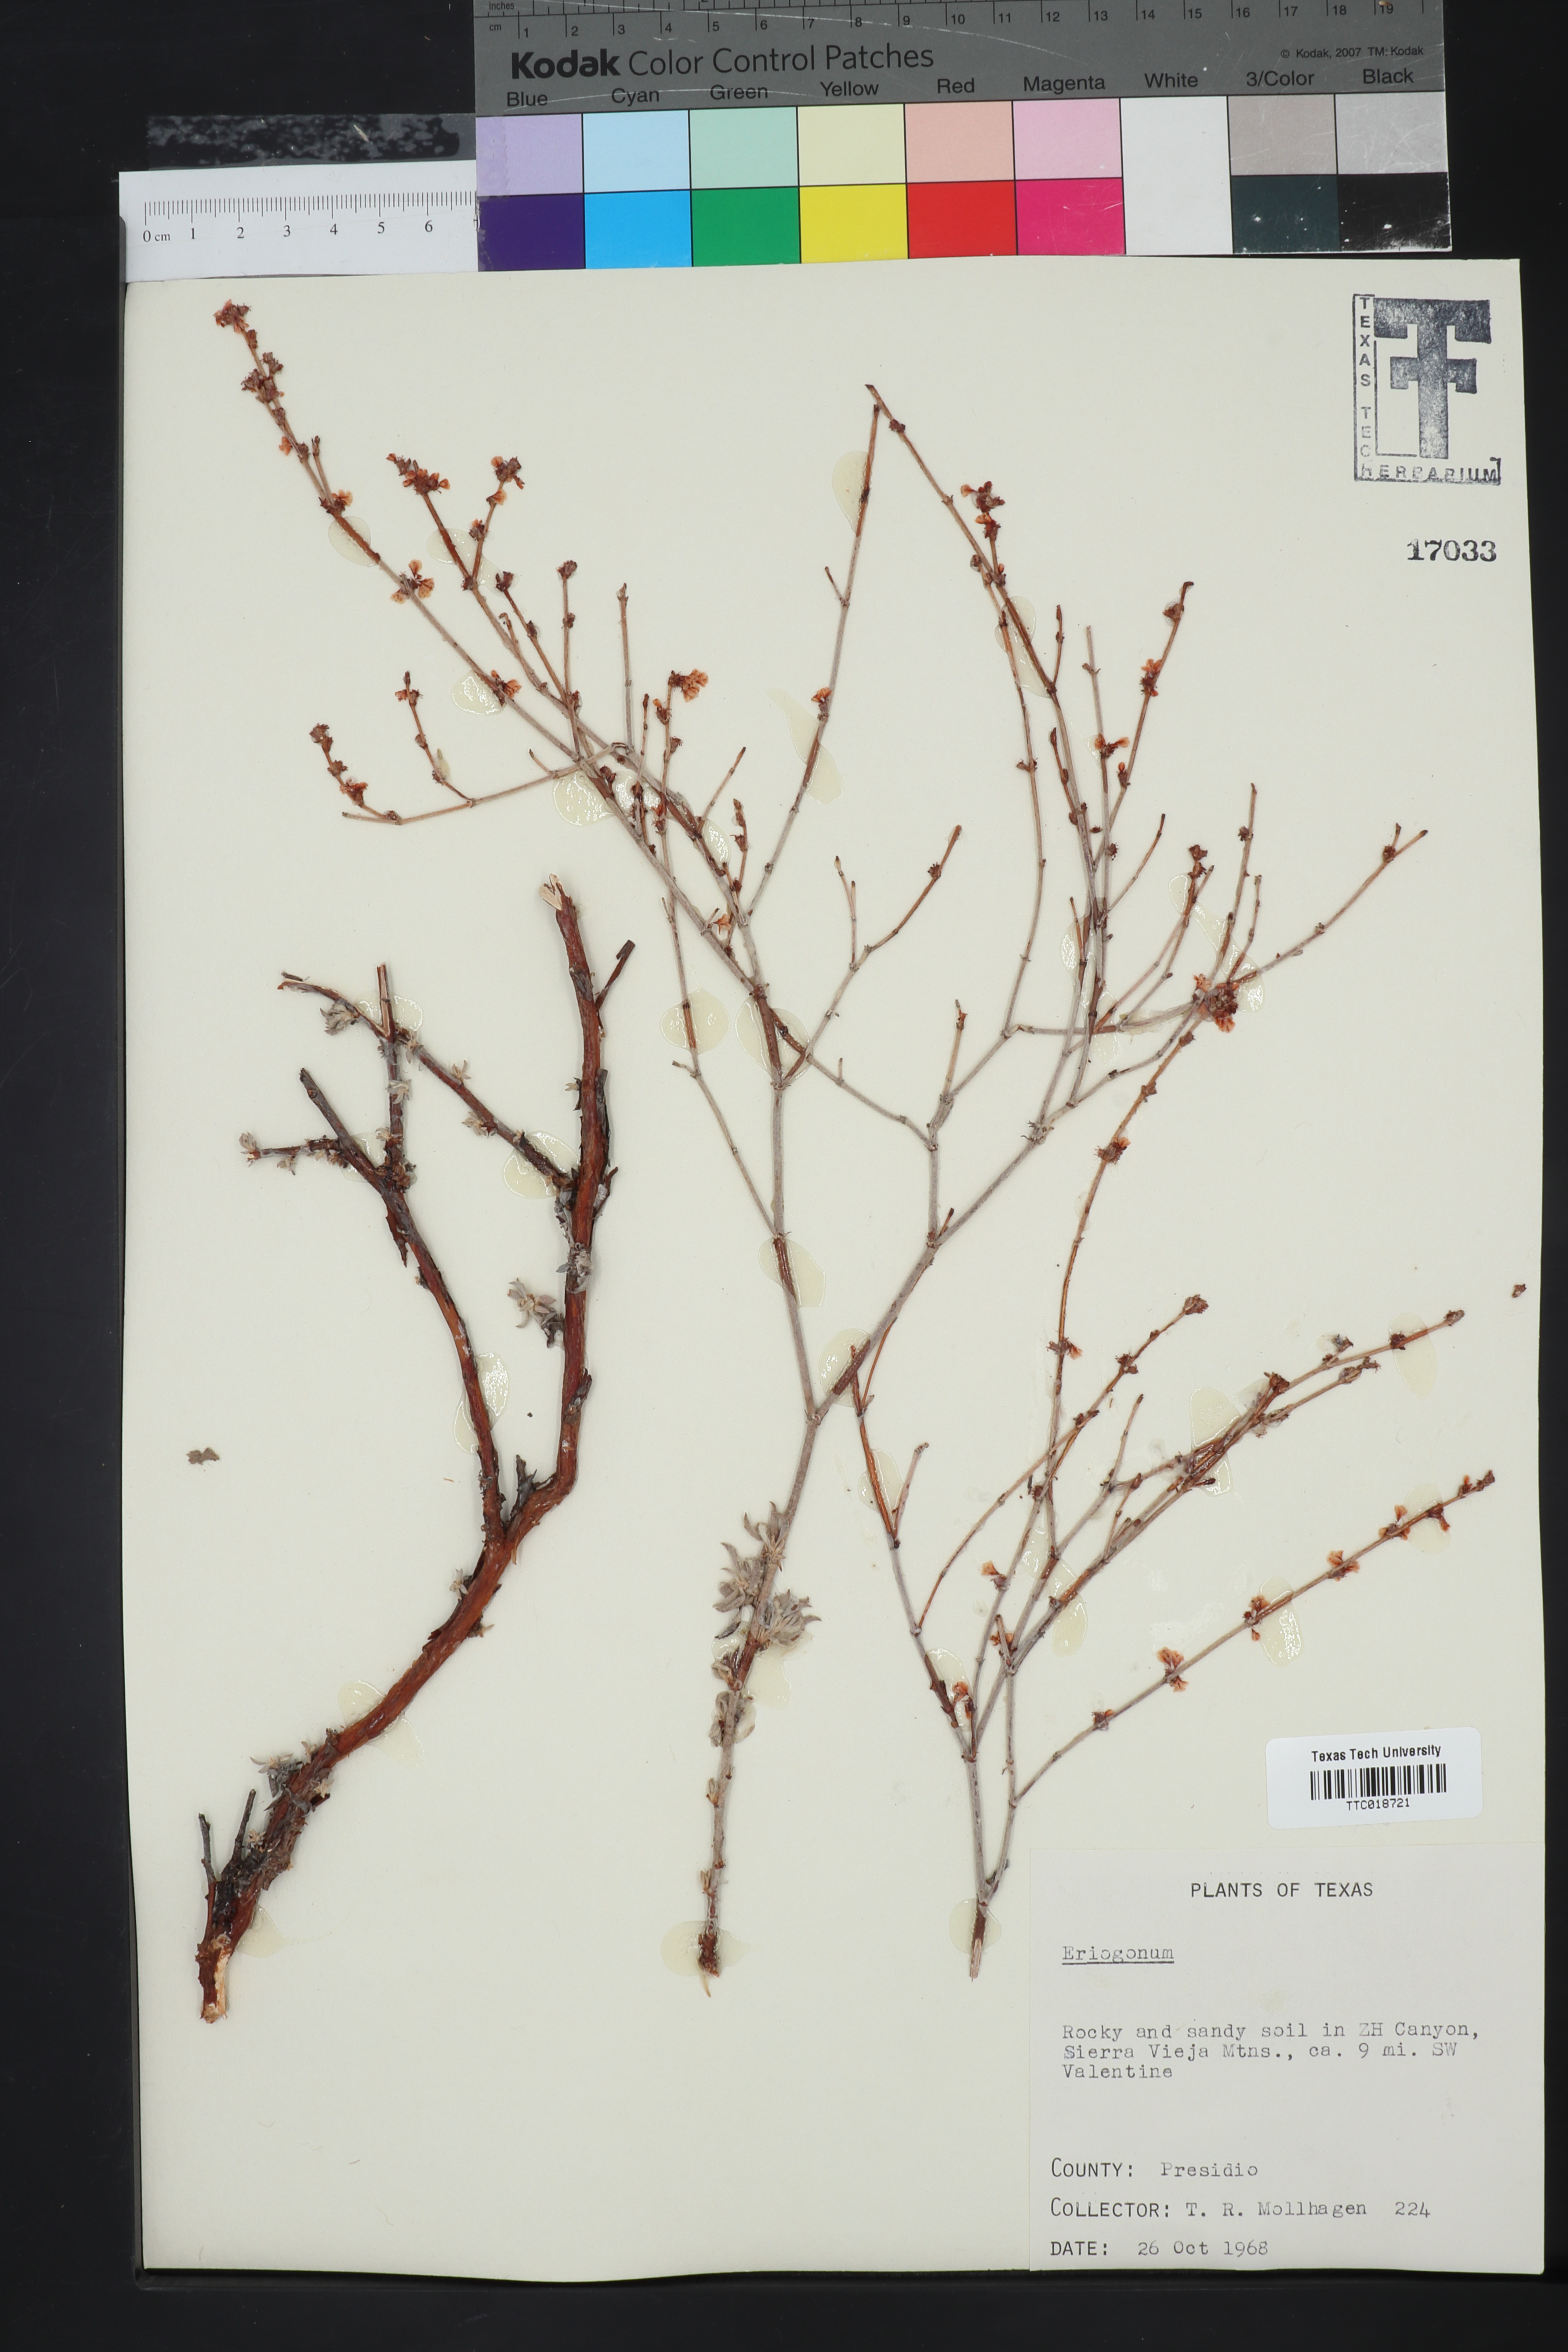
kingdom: Plantae
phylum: Tracheophyta
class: Magnoliopsida
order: Caryophyllales
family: Polygonaceae
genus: Eriogonum
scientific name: Eriogonum
